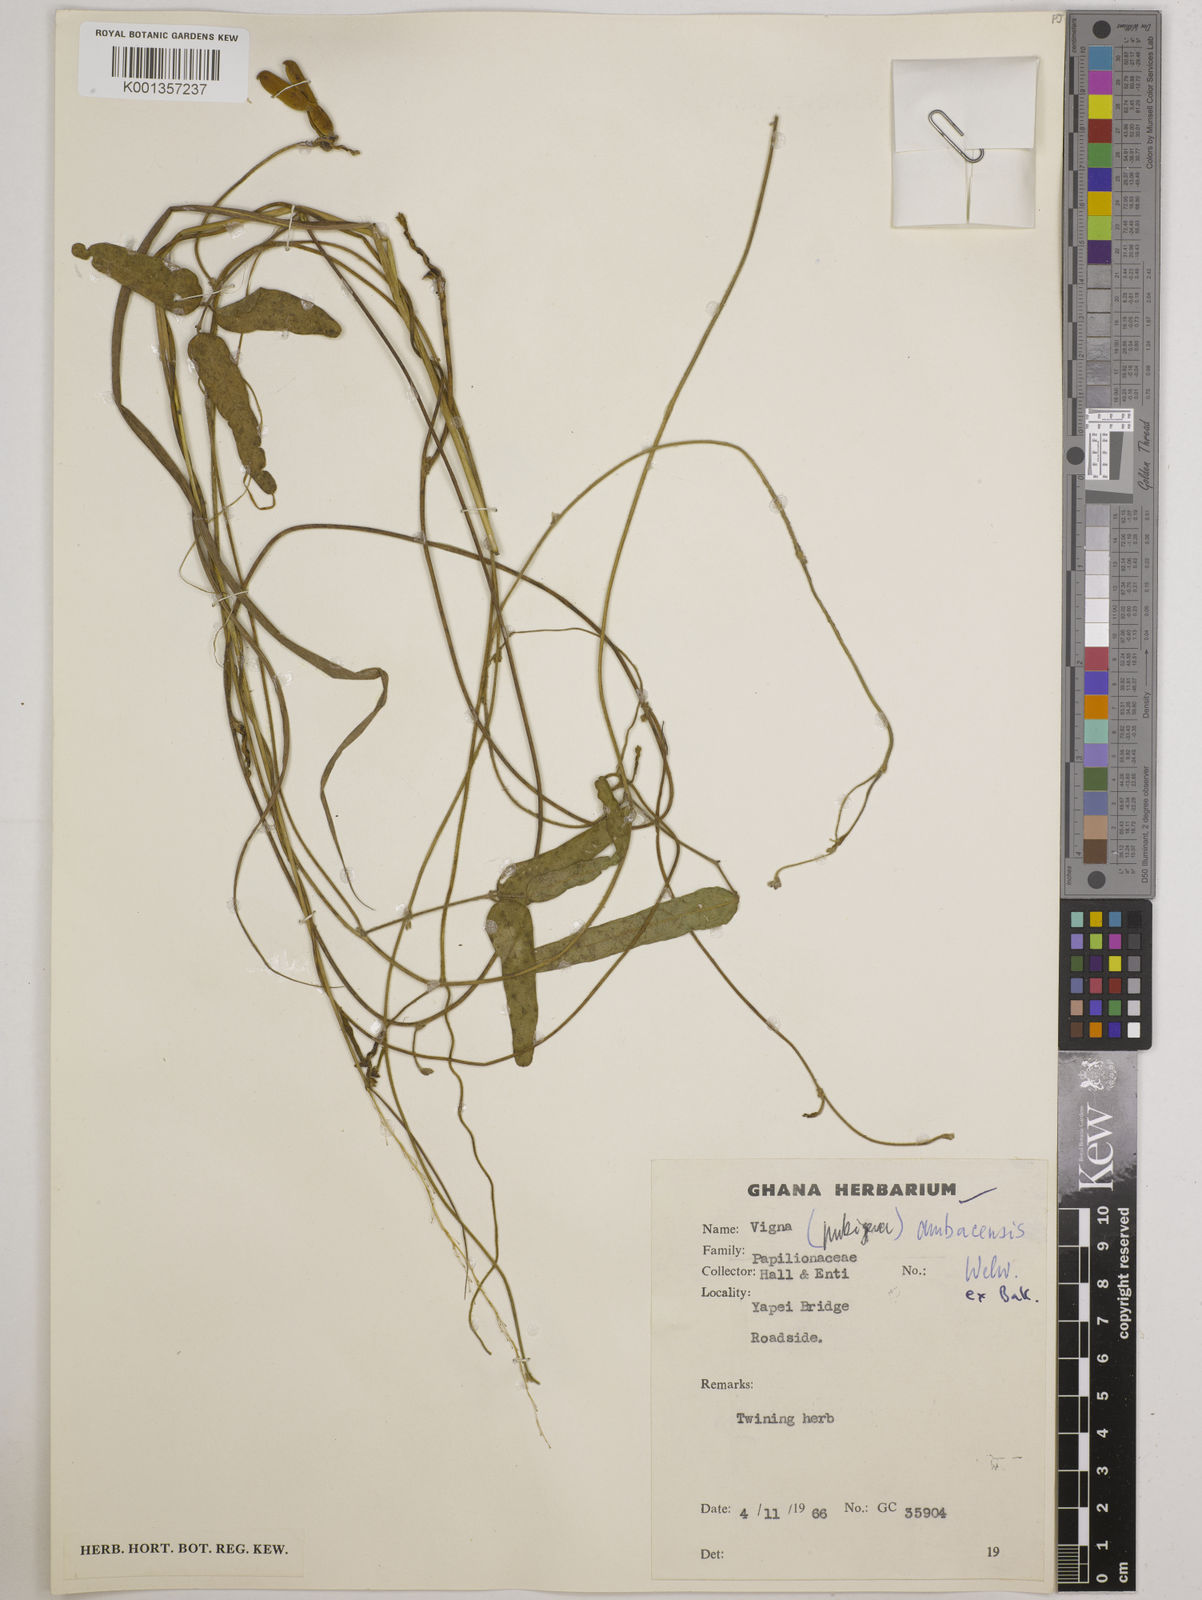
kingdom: Plantae
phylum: Tracheophyta
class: Magnoliopsida
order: Fabales
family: Fabaceae
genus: Vigna
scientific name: Vigna ambacensis
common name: Tsarkiyan zomo
